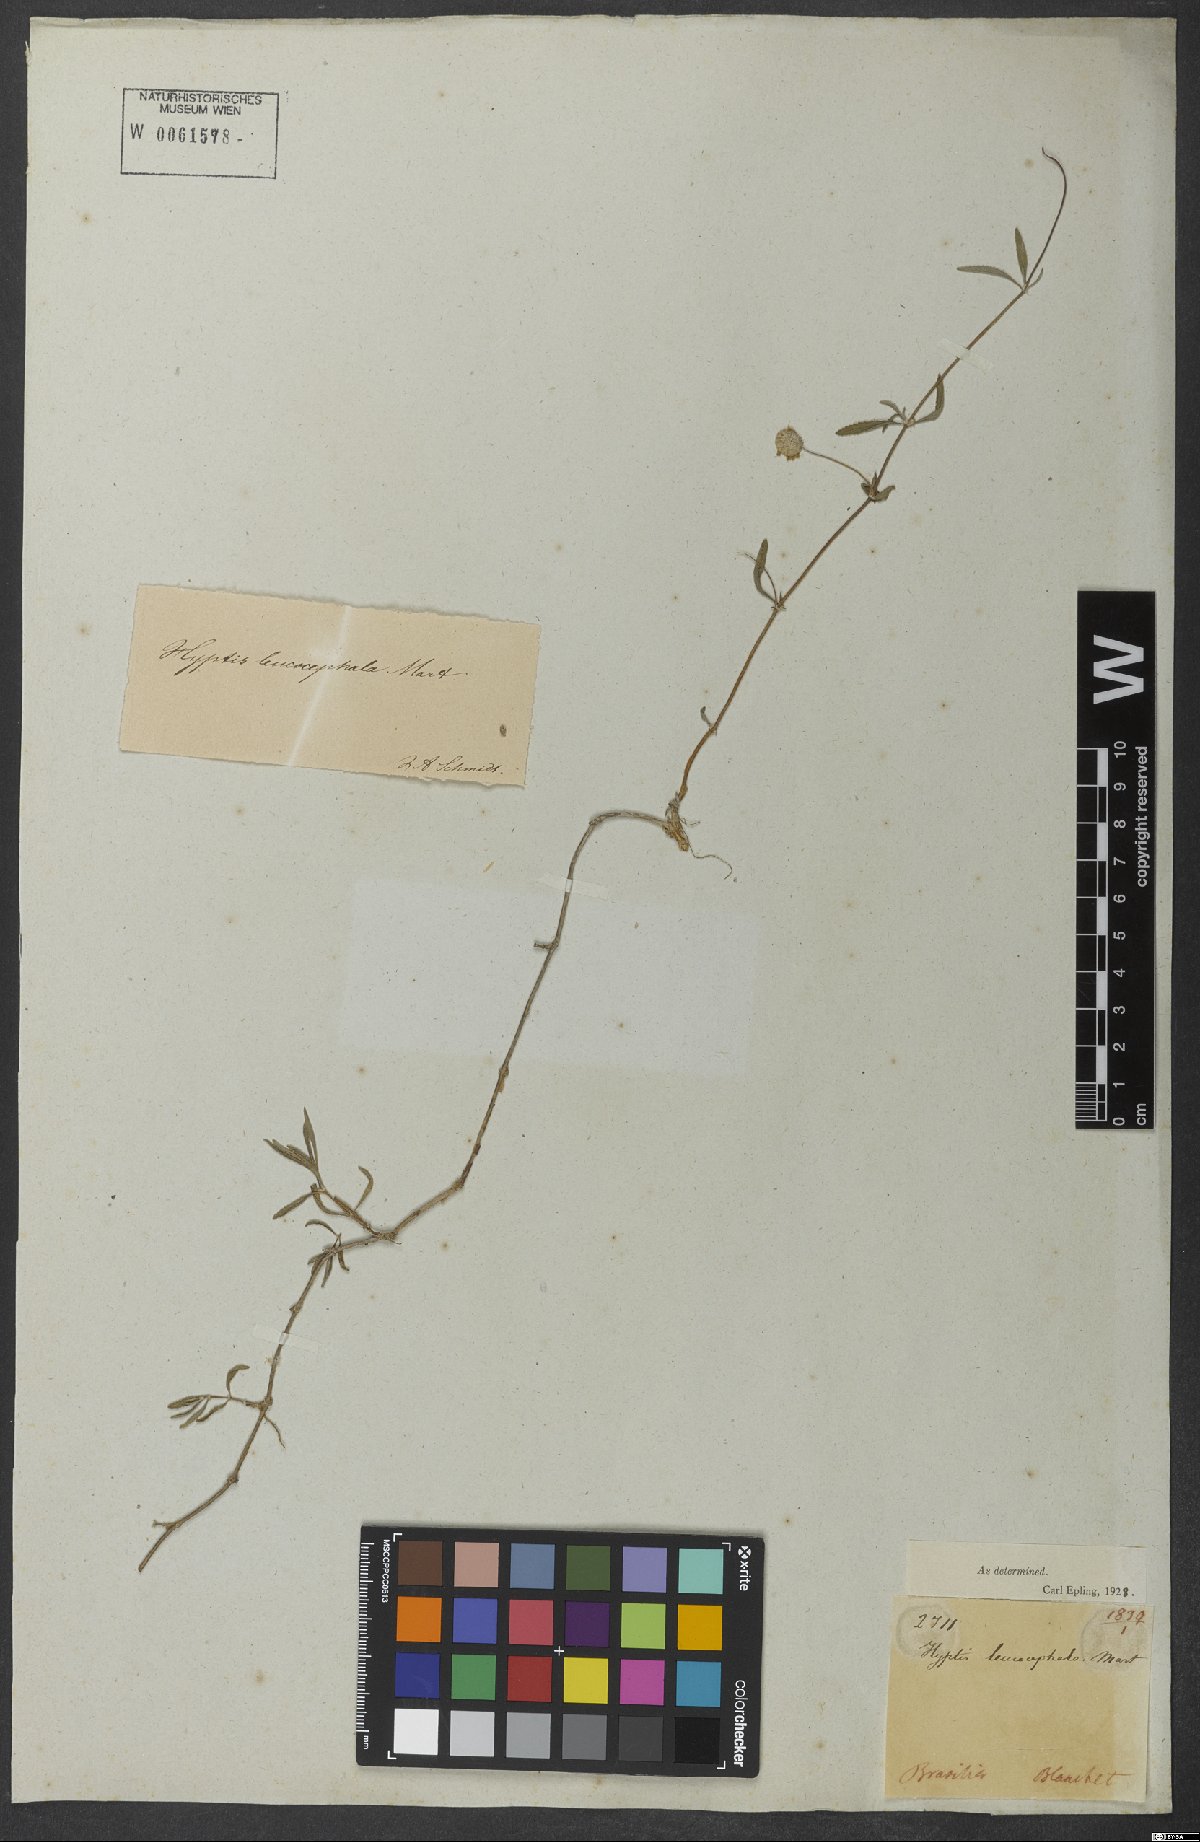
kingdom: Plantae
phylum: Tracheophyta
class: Magnoliopsida
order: Lamiales
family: Lamiaceae
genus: Martianthus
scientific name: Martianthus leucocephalus
